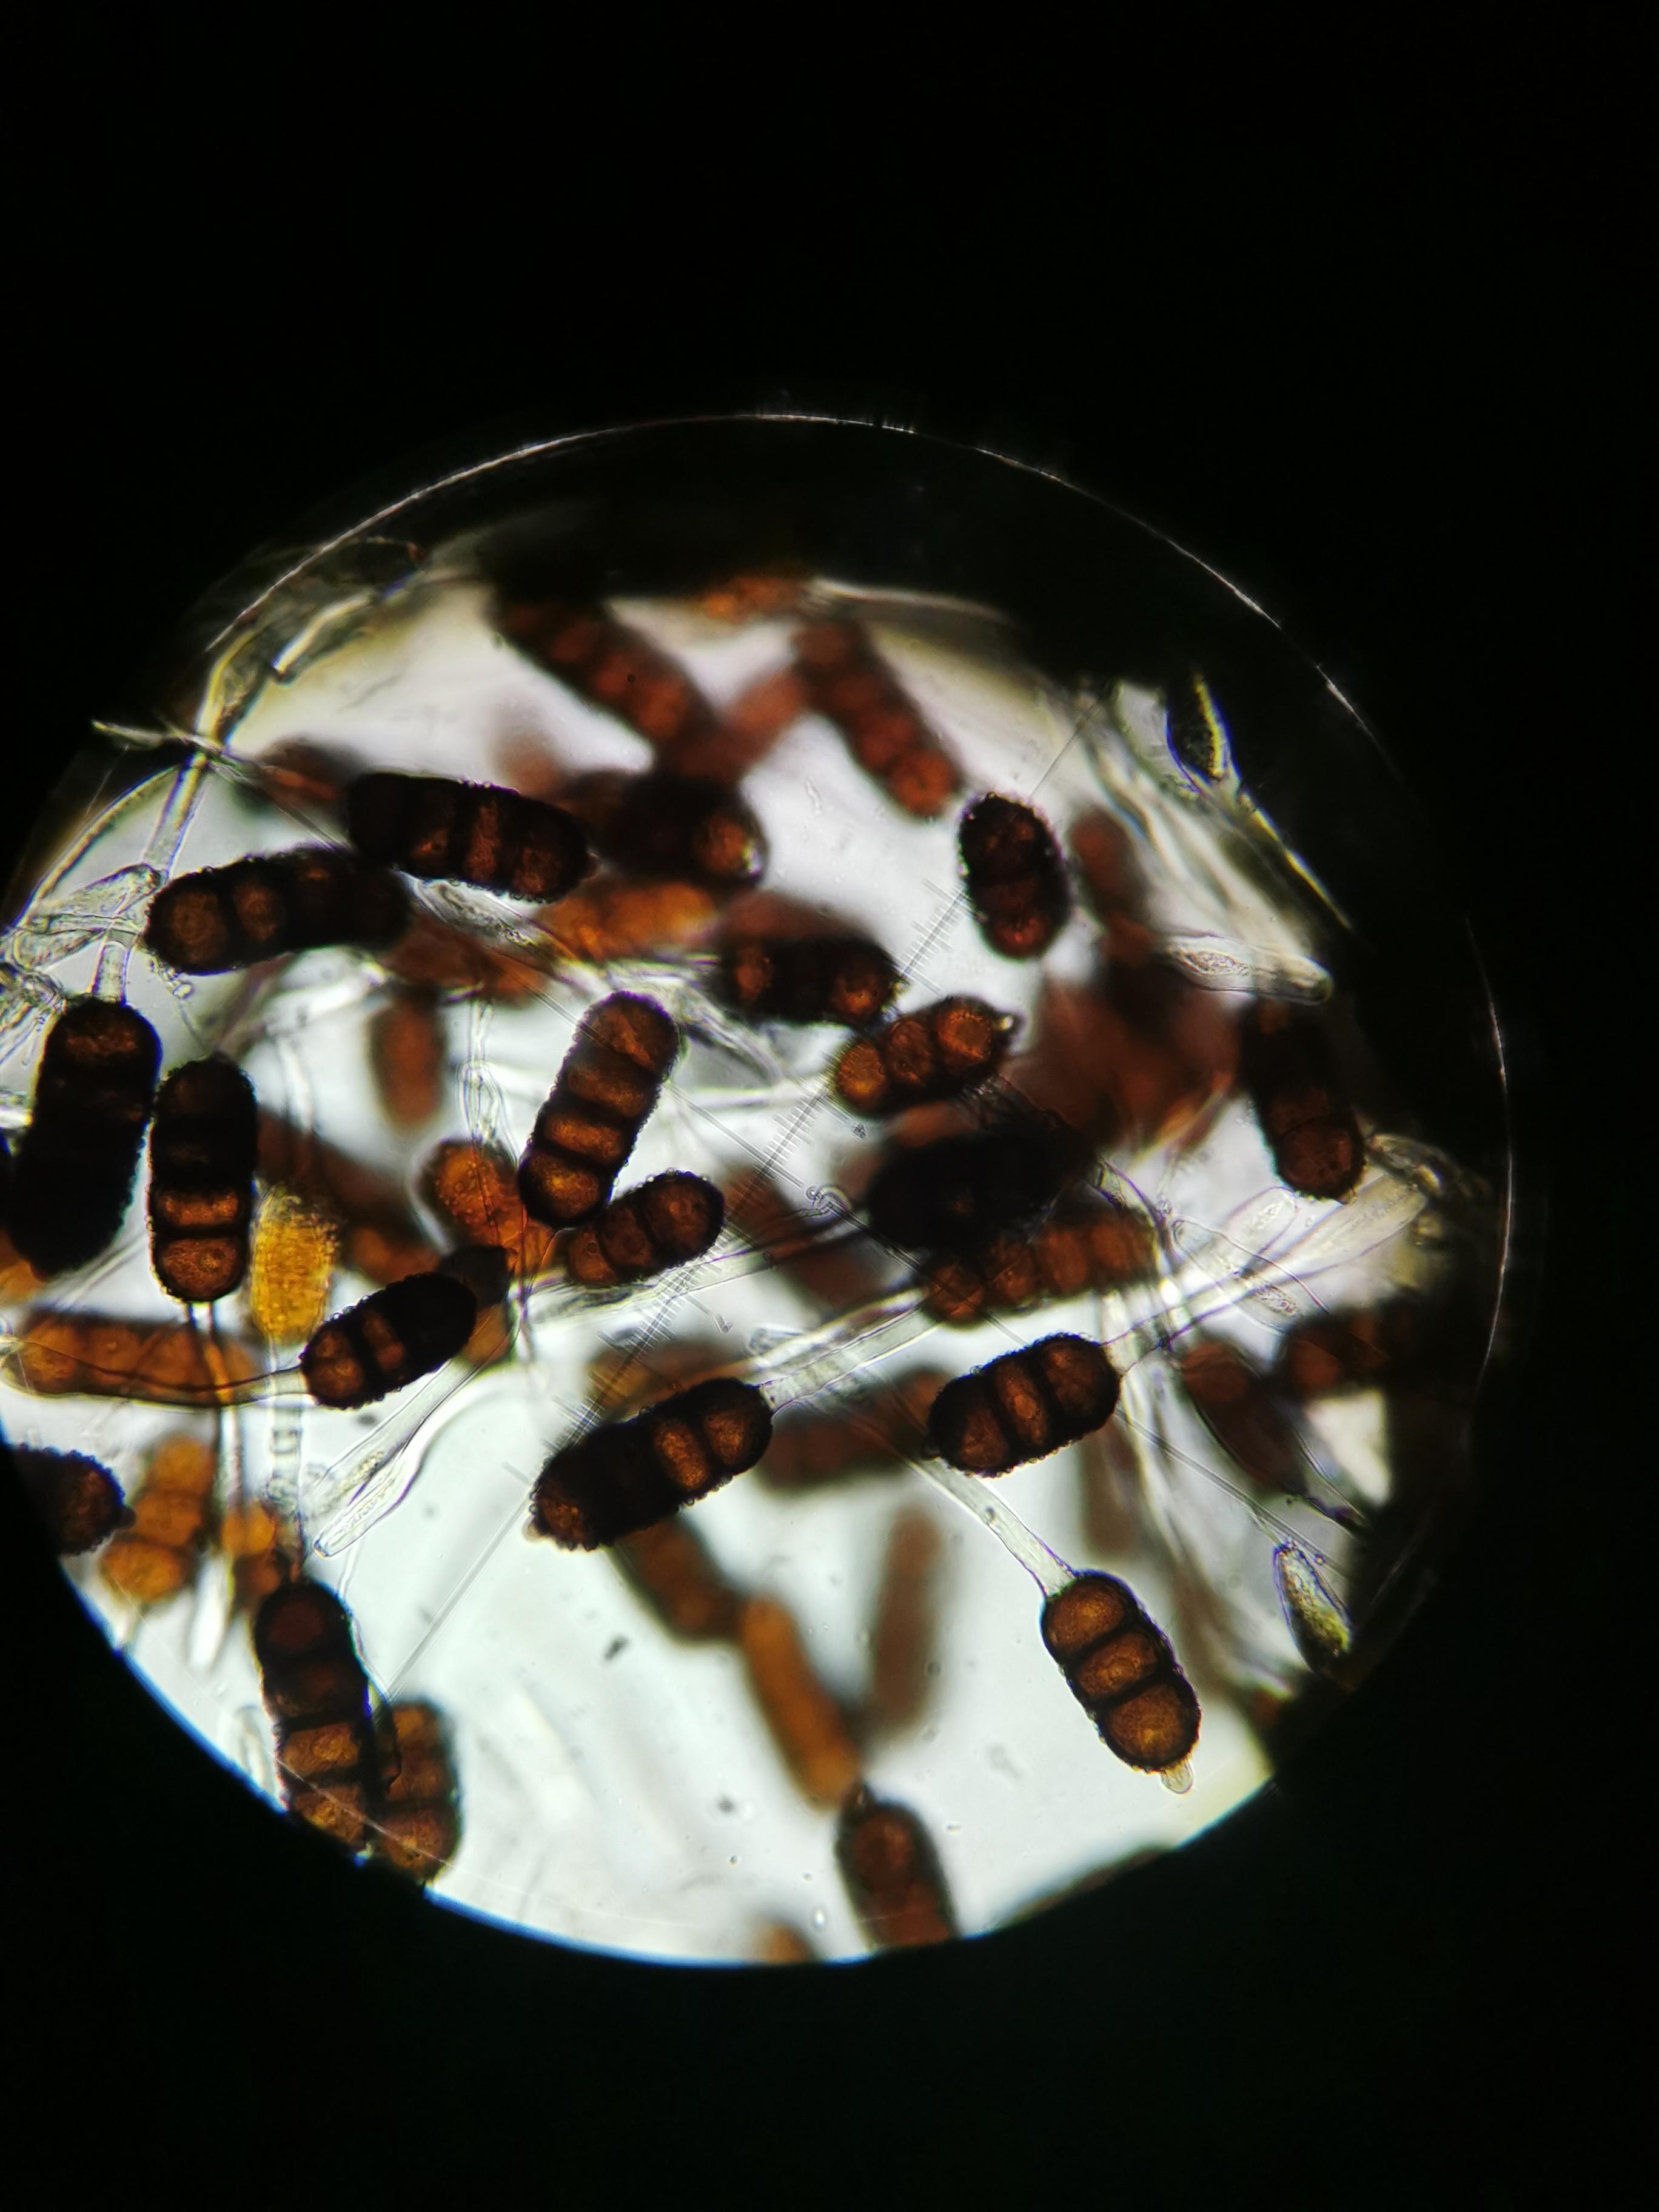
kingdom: Fungi
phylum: Basidiomycota
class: Pucciniomycetes
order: Pucciniales
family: Phragmidiaceae
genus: Phragmidium
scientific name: Phragmidium violaceum
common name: violet flercellerust
